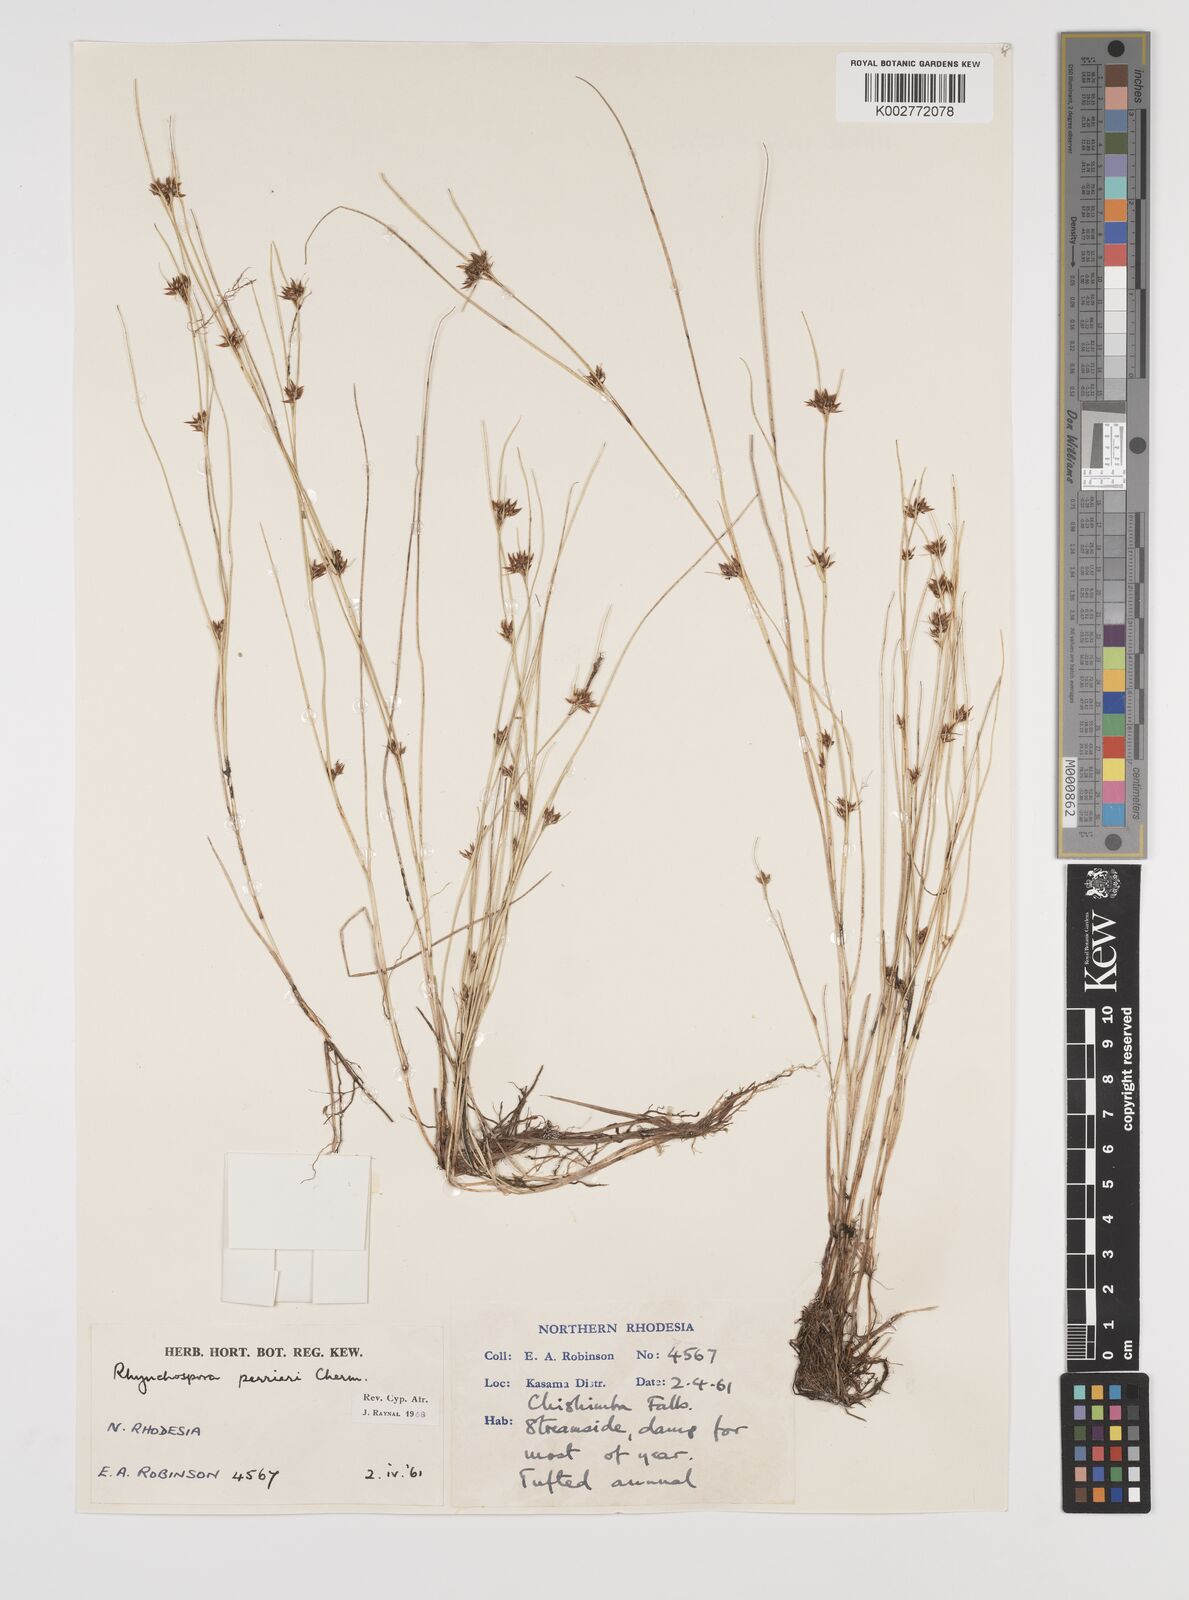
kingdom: Plantae
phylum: Tracheophyta
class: Liliopsida
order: Poales
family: Cyperaceae
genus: Rhynchospora
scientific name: Rhynchospora perrieri
